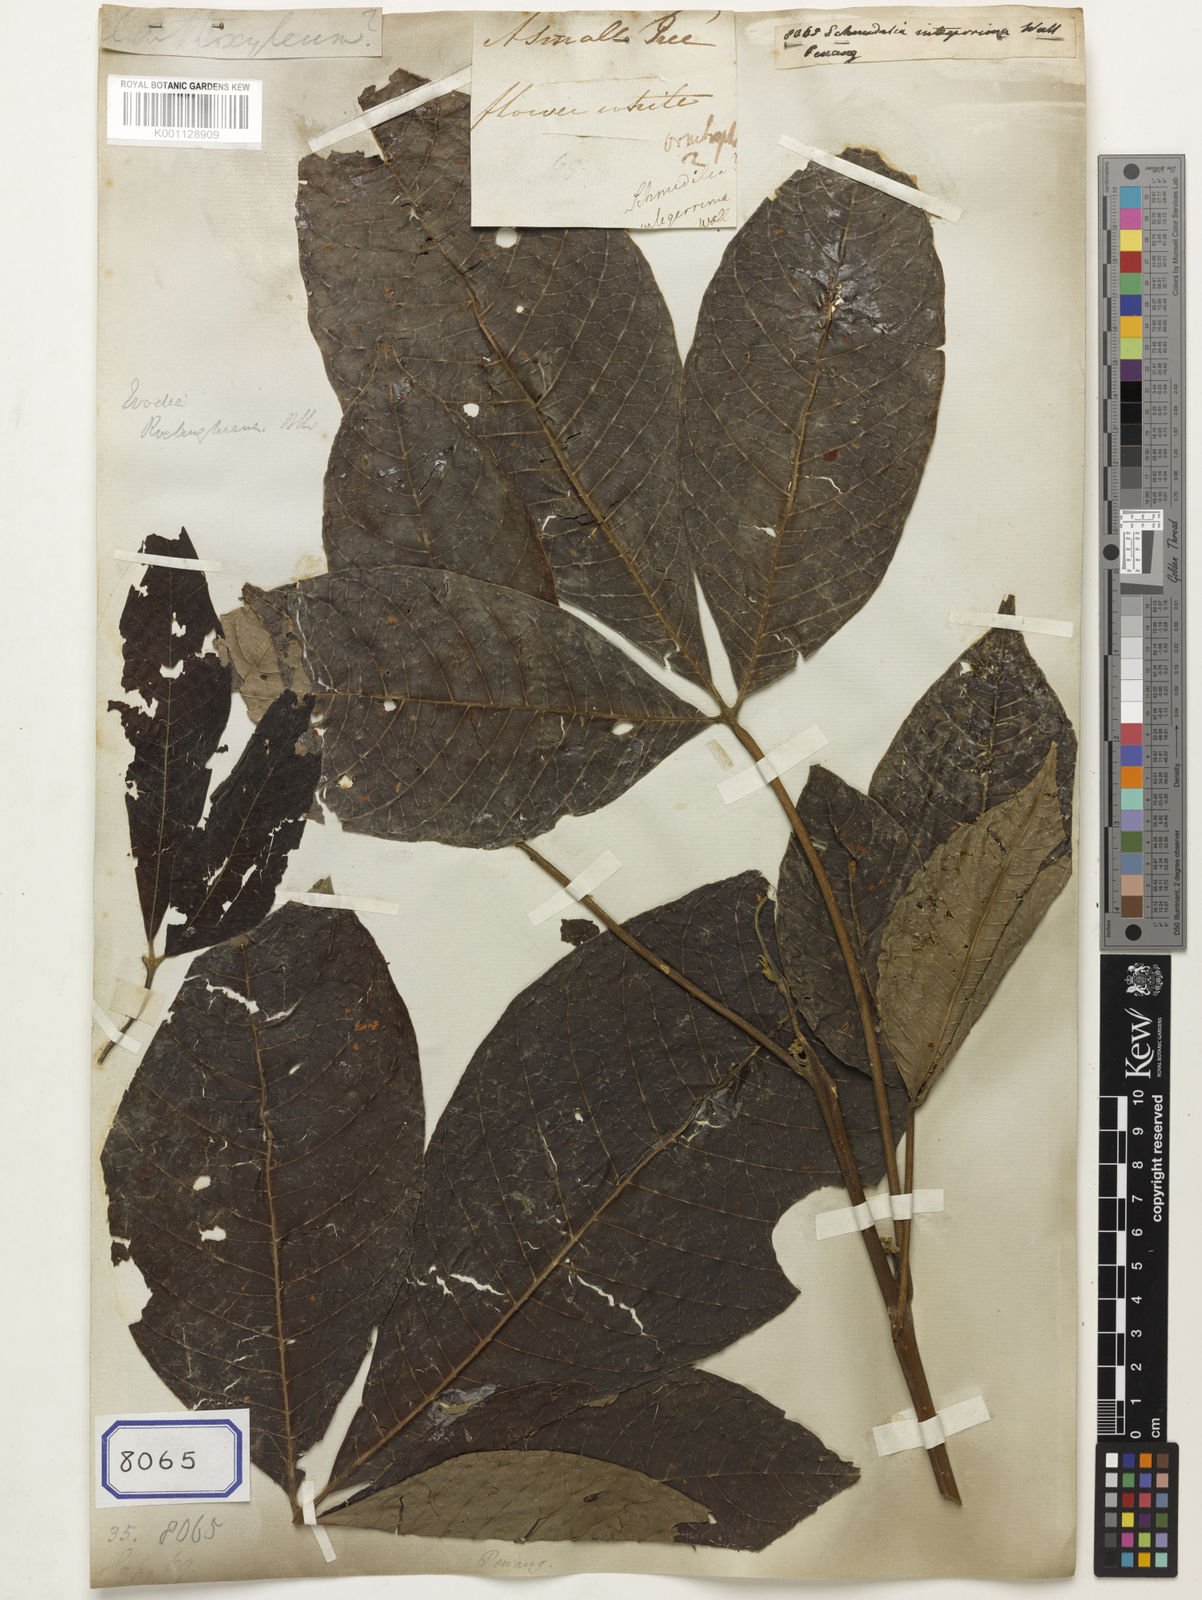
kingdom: Plantae
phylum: Tracheophyta
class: Magnoliopsida
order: Sapindales
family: Sapindaceae
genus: Melicoccus
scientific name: Melicoccus oliviformis
